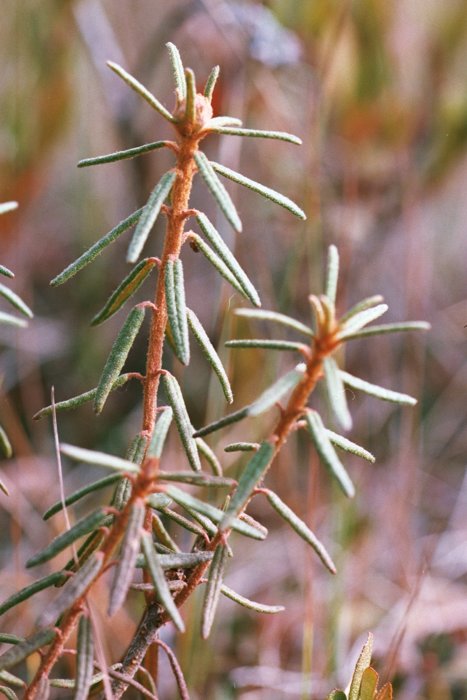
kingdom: Plantae
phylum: Tracheophyta
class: Magnoliopsida
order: Ericales
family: Ericaceae
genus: Rhododendron
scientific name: Rhododendron tomentosum
